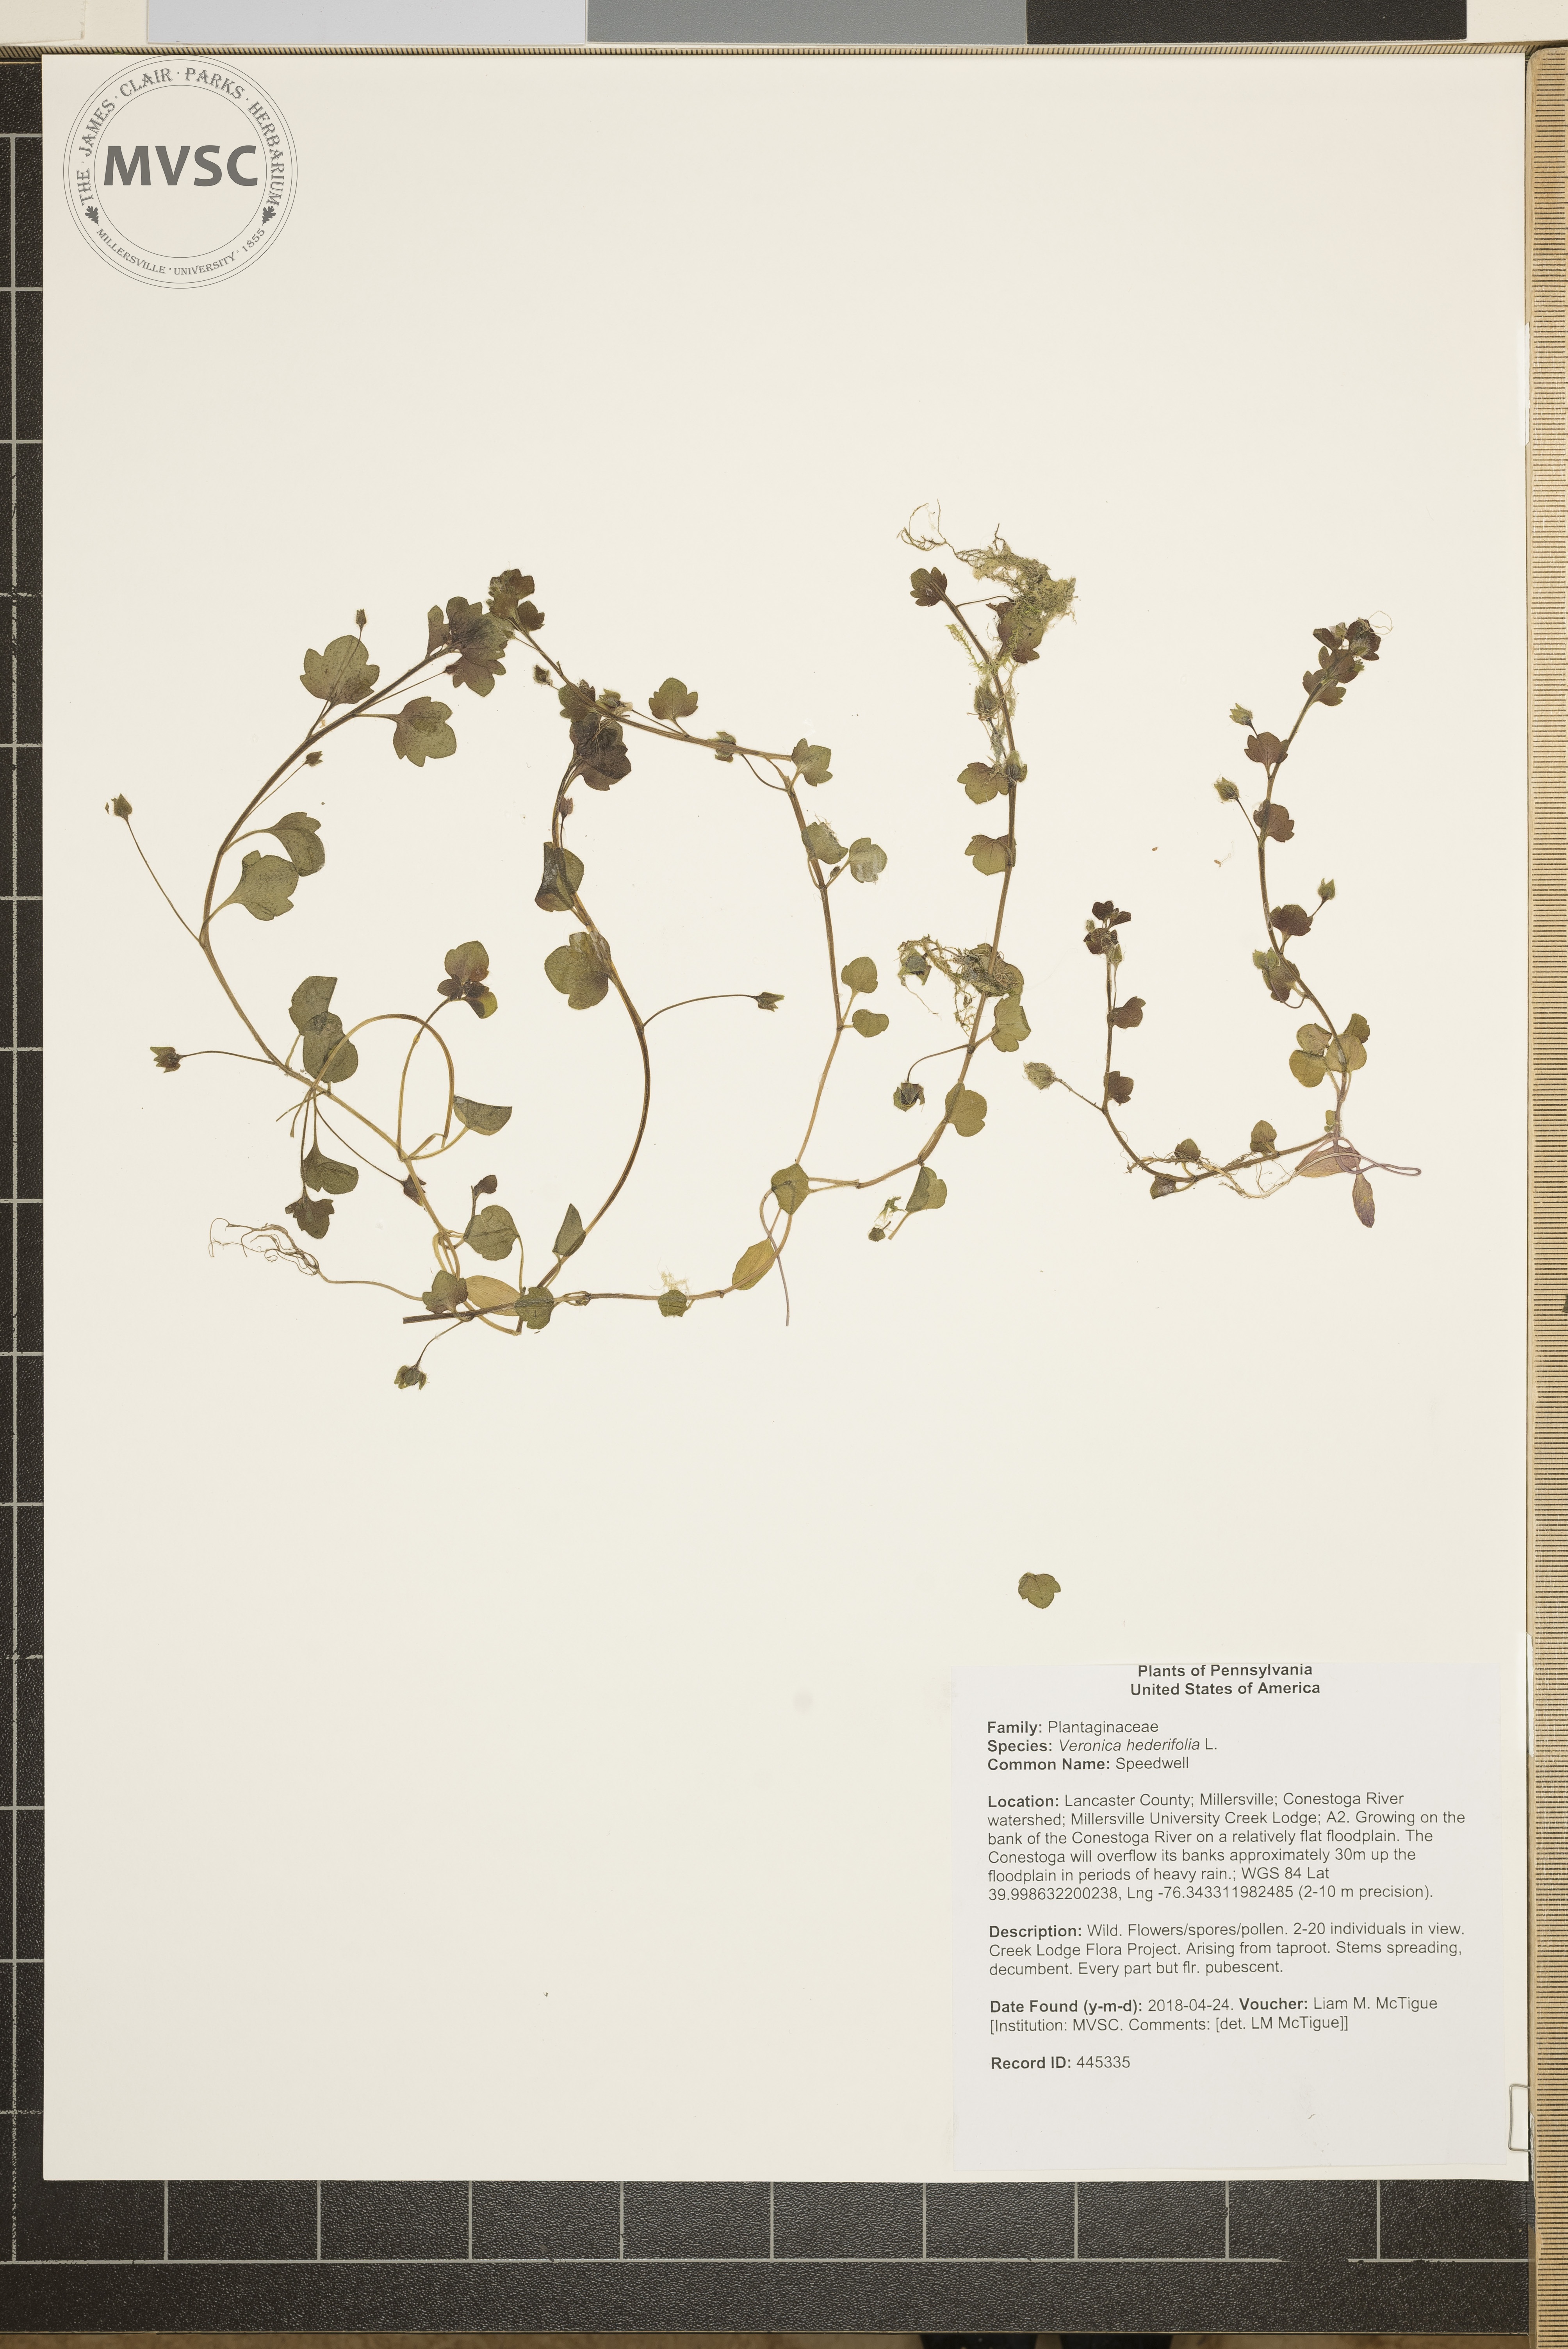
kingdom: Plantae
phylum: Tracheophyta
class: Magnoliopsida
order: Lamiales
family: Plantaginaceae
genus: Veronica
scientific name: Veronica hederifolia
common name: Speedwell
